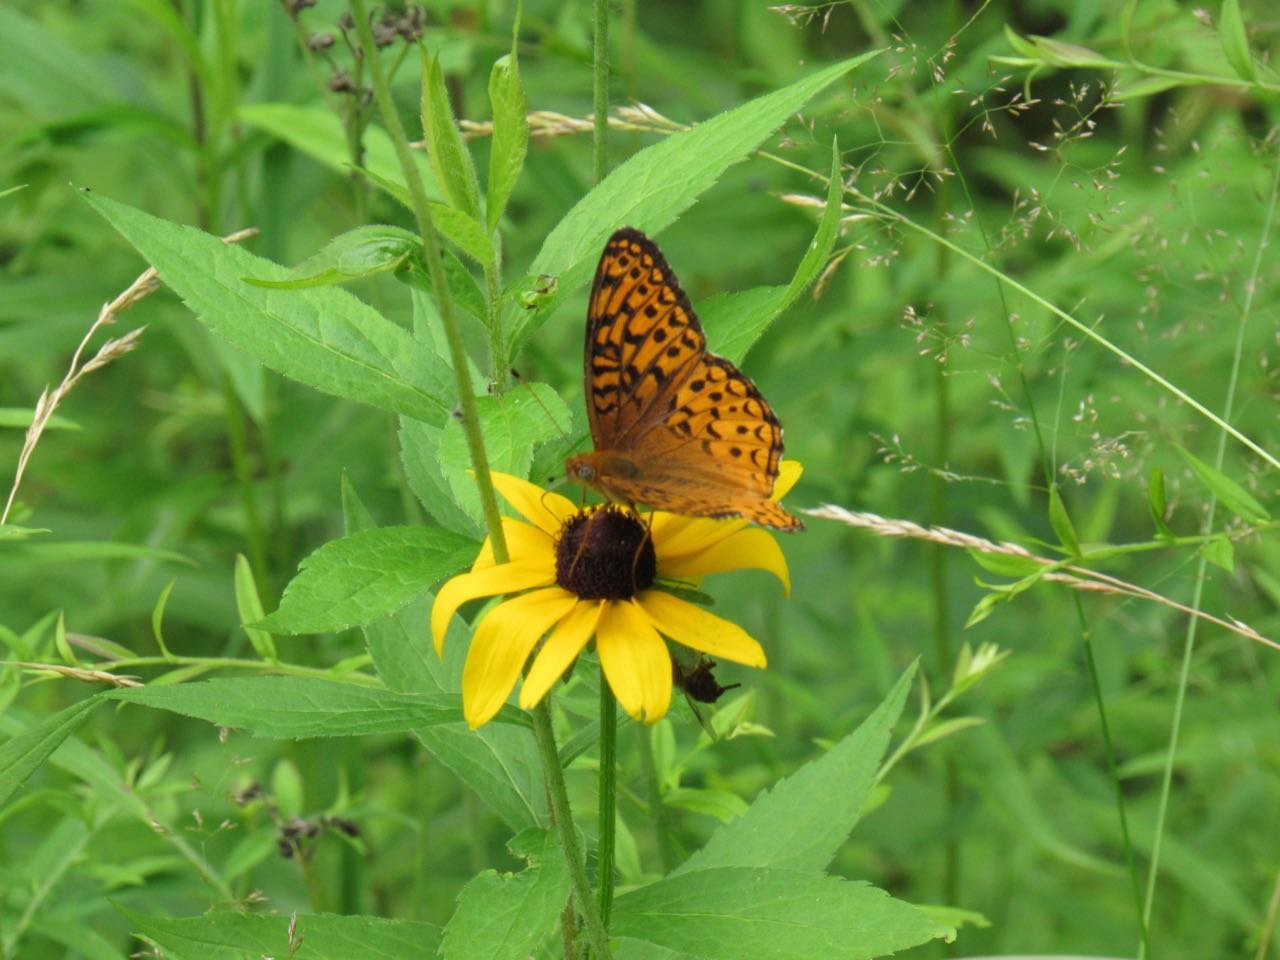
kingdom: Animalia
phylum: Arthropoda
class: Insecta
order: Lepidoptera
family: Nymphalidae
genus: Speyeria
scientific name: Speyeria atlantis
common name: Atlantis Fritillary
